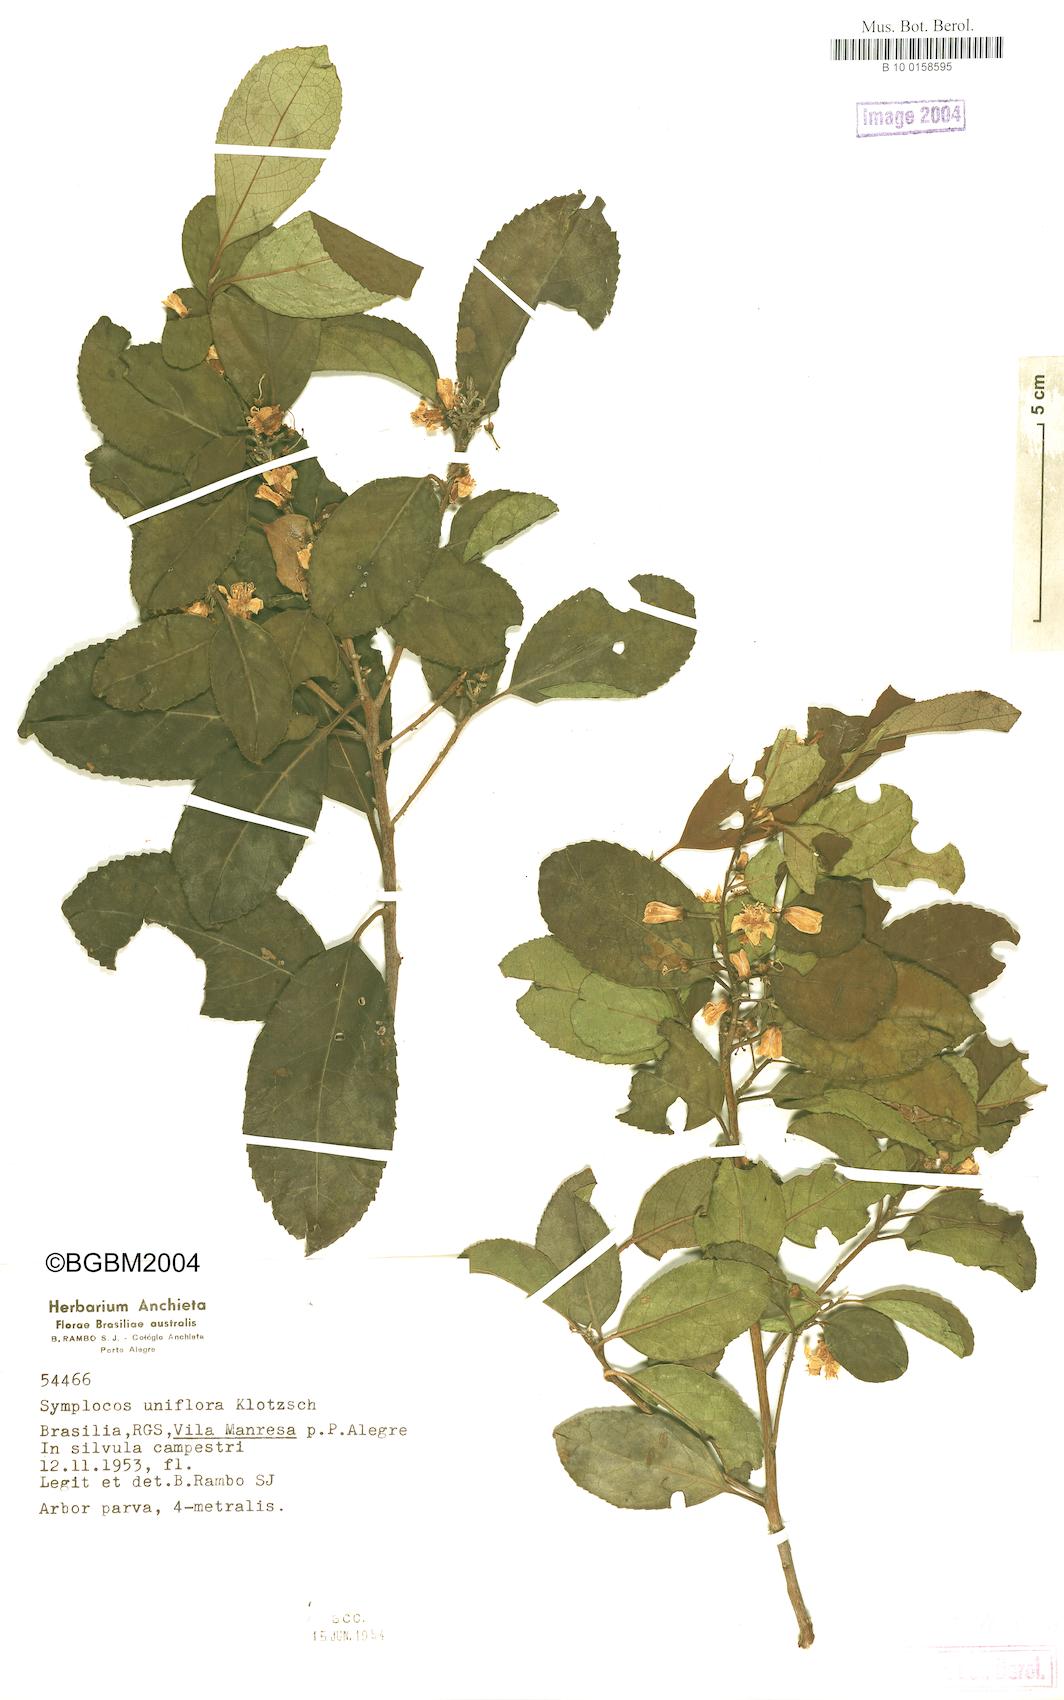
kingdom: Plantae
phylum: Tracheophyta
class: Magnoliopsida
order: Ericales
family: Symplocaceae
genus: Symplocos
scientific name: Symplocos uniflora
